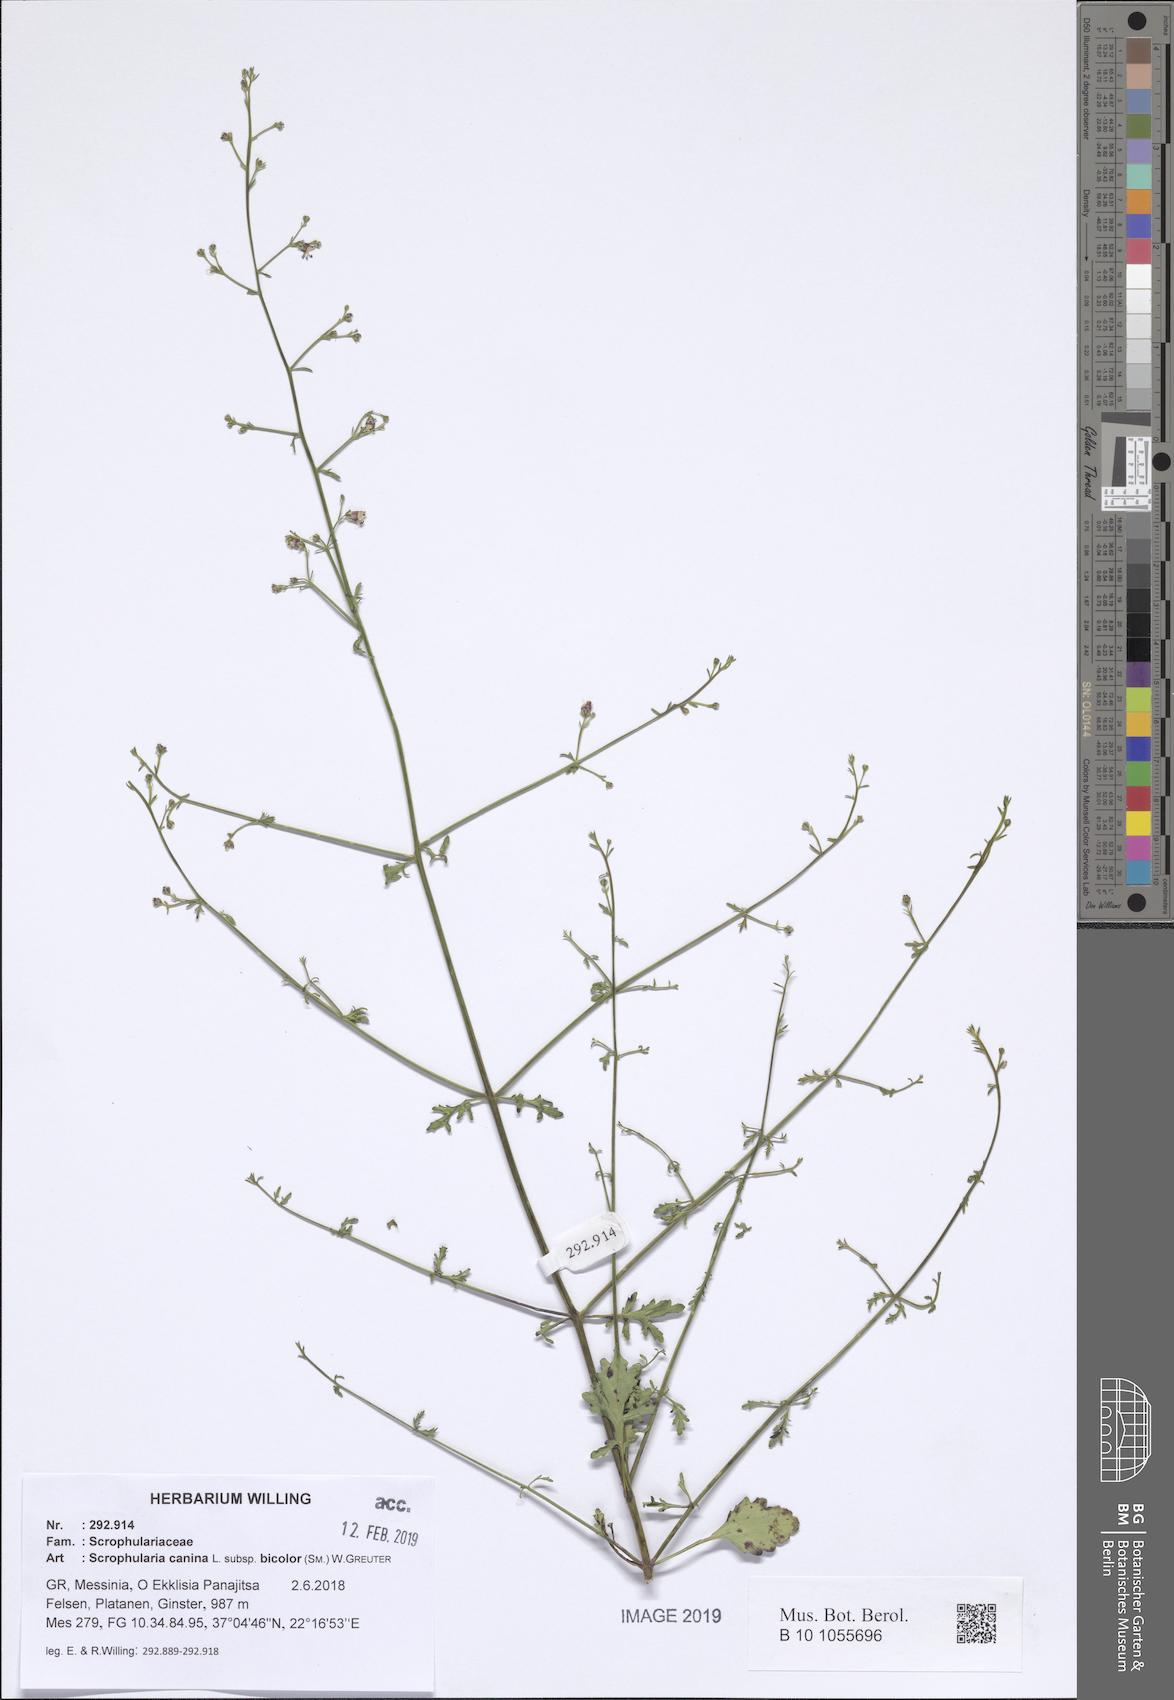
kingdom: Plantae
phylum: Tracheophyta
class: Magnoliopsida
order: Lamiales
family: Scrophulariaceae
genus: Scrophularia
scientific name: Scrophularia canina
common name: French figwort
